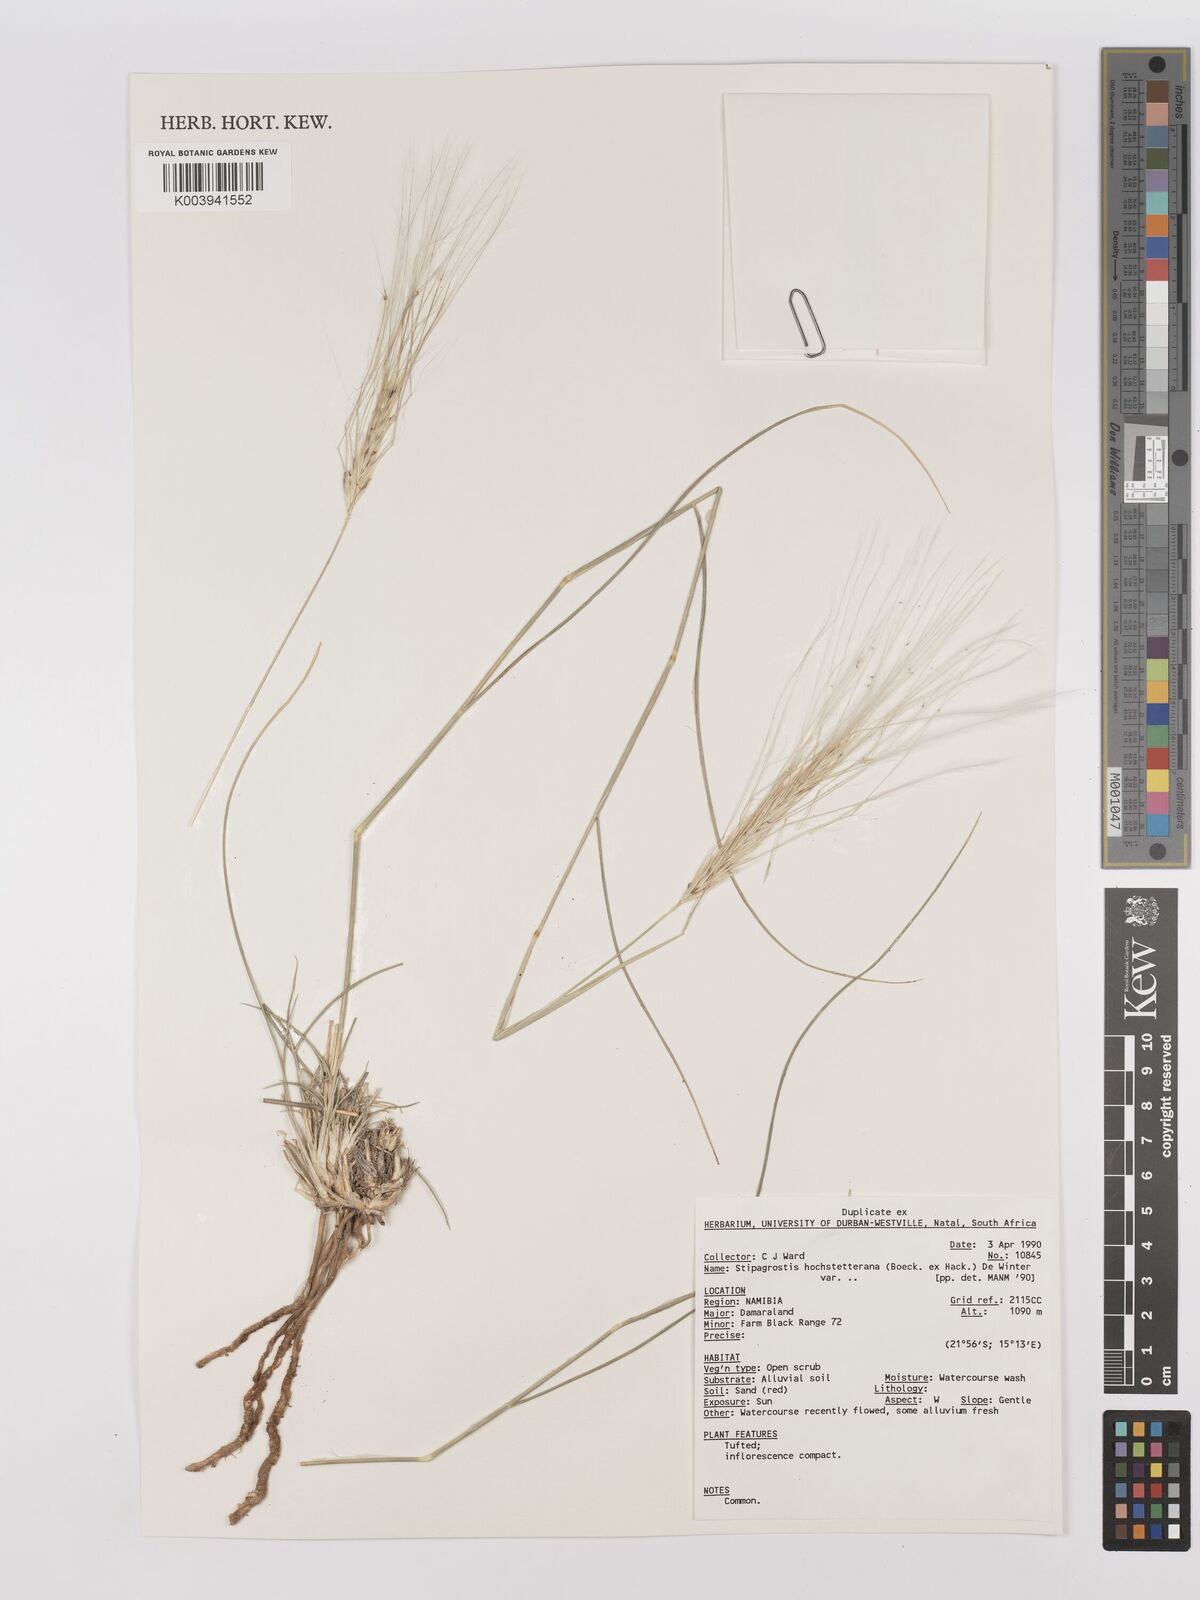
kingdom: Plantae
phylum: Tracheophyta
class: Liliopsida
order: Poales
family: Poaceae
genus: Stipagrostis
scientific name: Stipagrostis hochstetteriana
